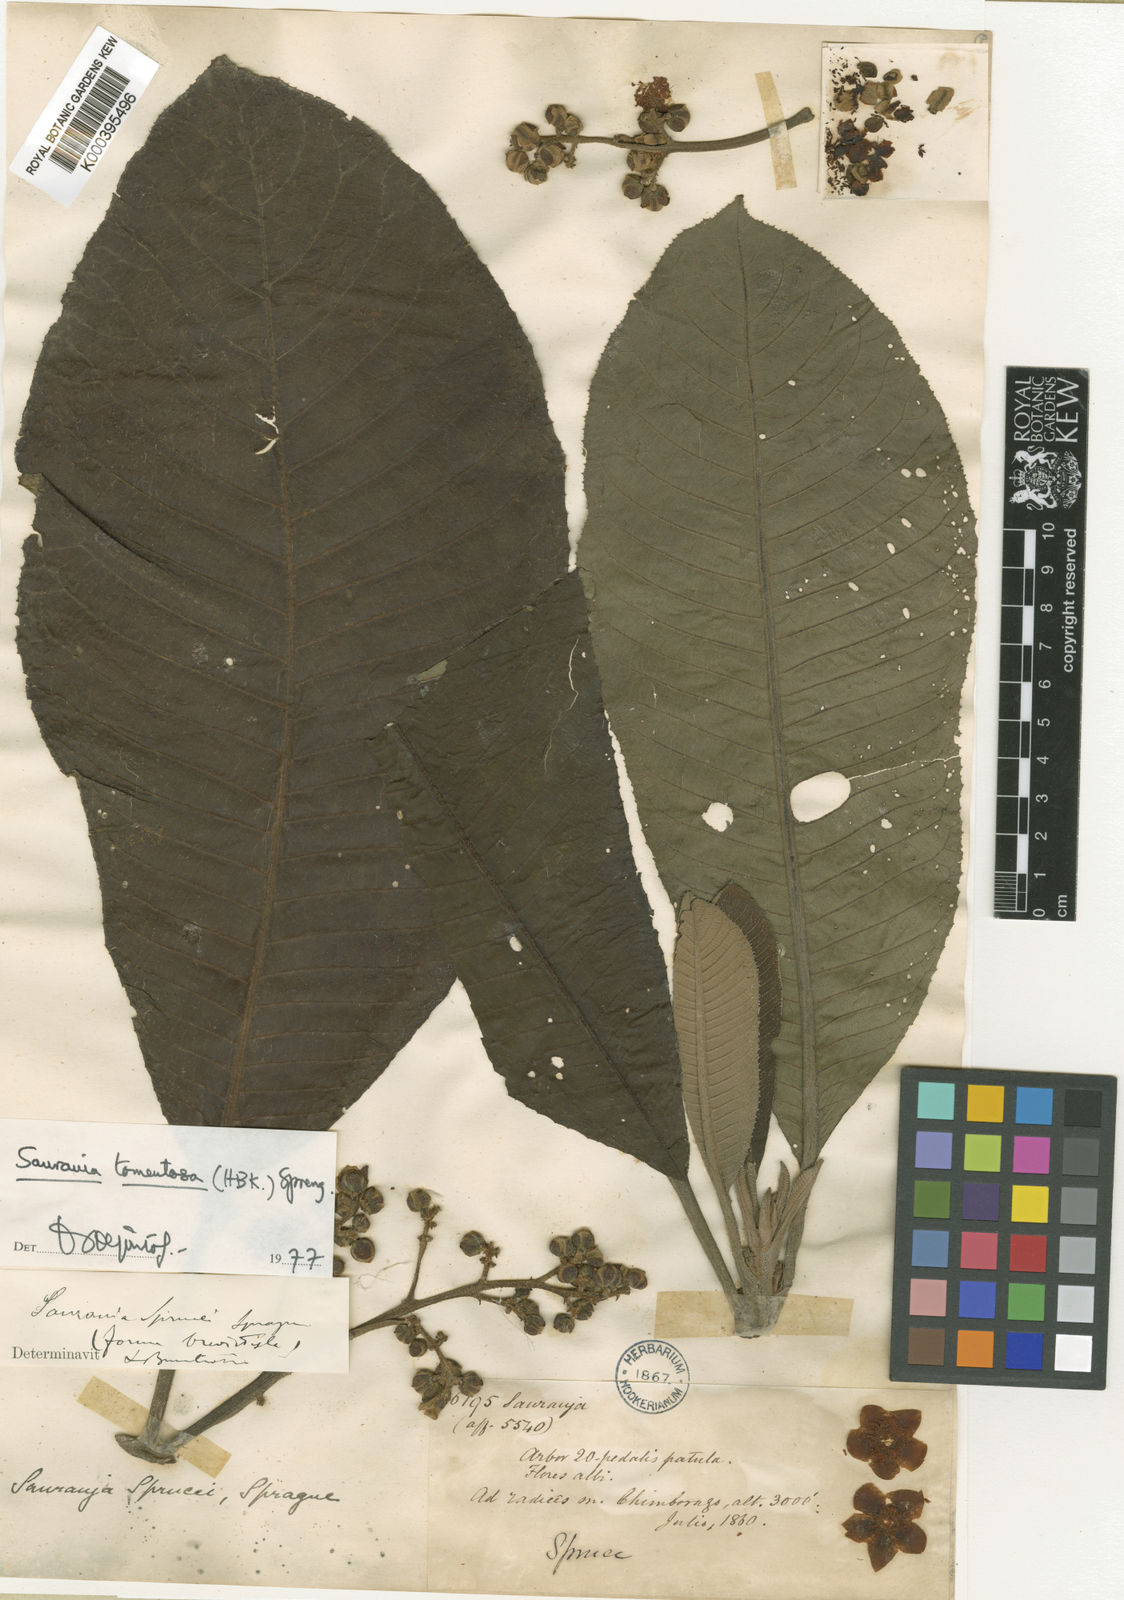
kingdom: Plantae
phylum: Tracheophyta
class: Magnoliopsida
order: Ericales
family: Actinidiaceae
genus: Saurauia
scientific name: Saurauia tomentosa
